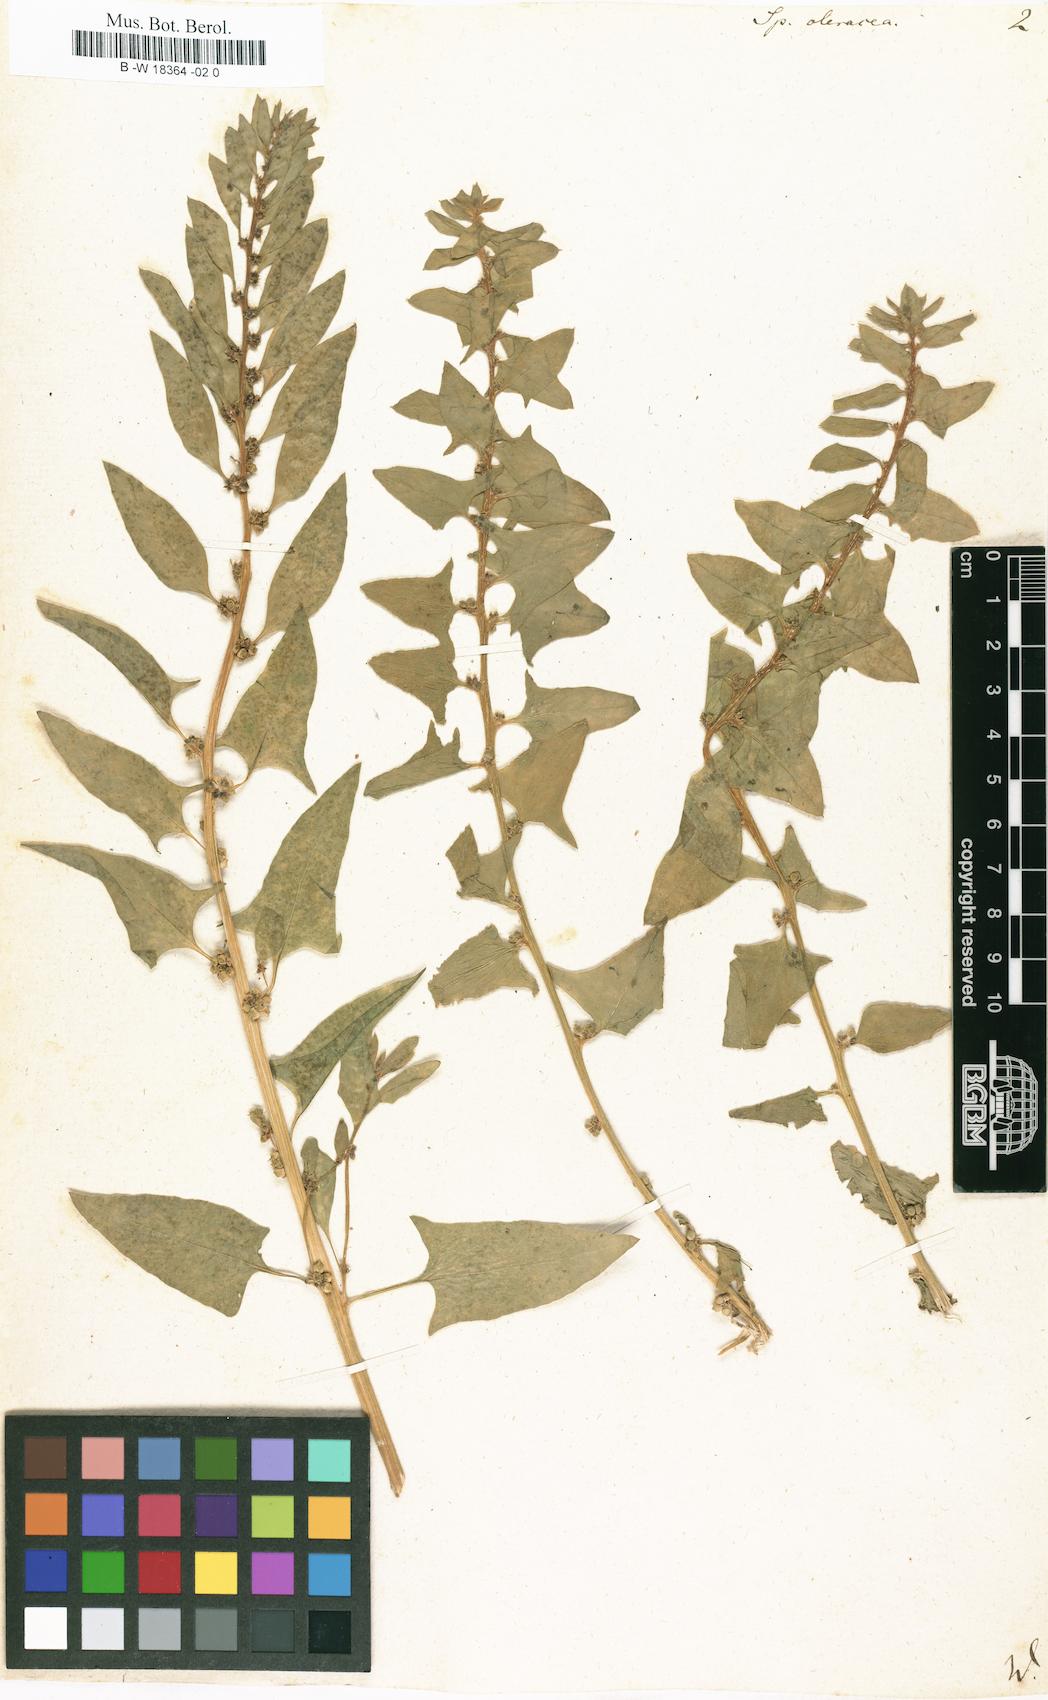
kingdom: Plantae
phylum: Tracheophyta
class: Magnoliopsida
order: Caryophyllales
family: Amaranthaceae
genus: Spinacia
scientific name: Spinacia oleracea
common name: Spinach
